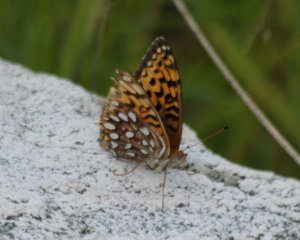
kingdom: Animalia
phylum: Arthropoda
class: Insecta
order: Lepidoptera
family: Nymphalidae
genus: Speyeria
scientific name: Speyeria atlantis
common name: Atlantis Fritillary
